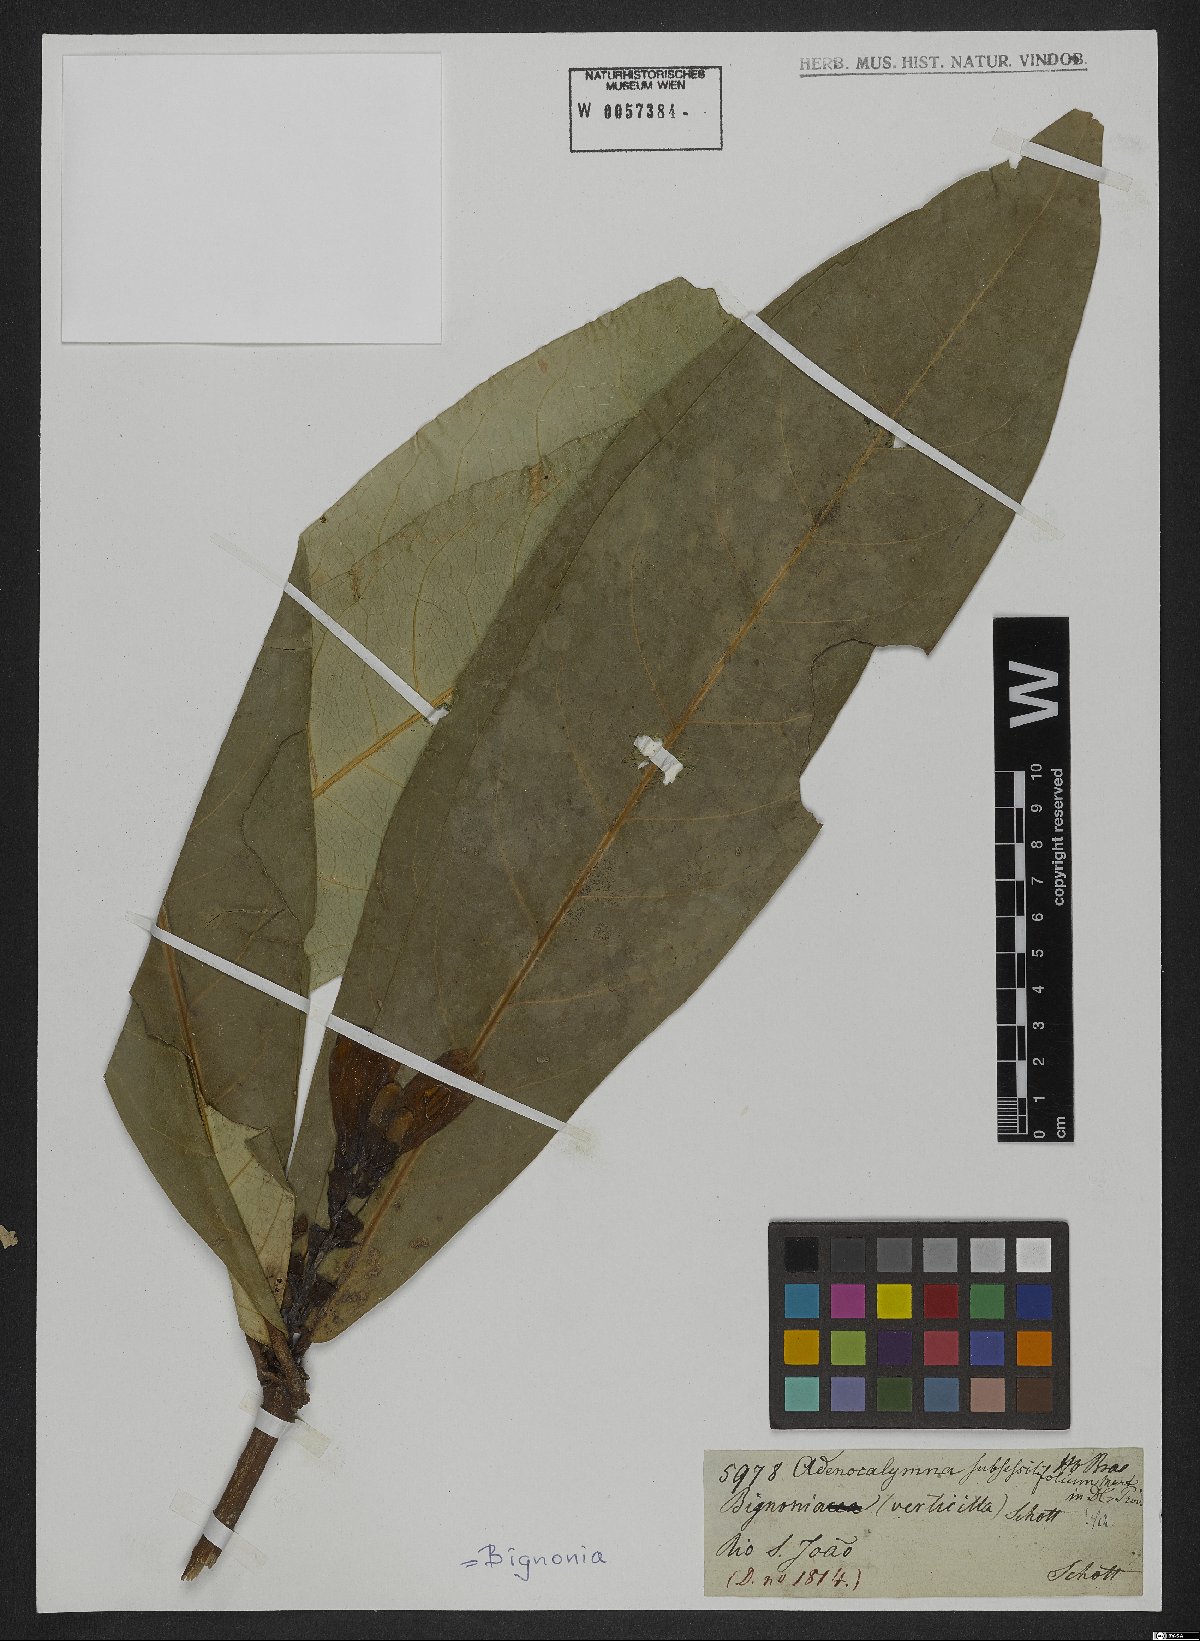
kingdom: Plantae
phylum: Tracheophyta
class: Magnoliopsida
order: Lamiales
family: Bignoniaceae
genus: Adenocalymma
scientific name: Adenocalymma subsessilifolium
